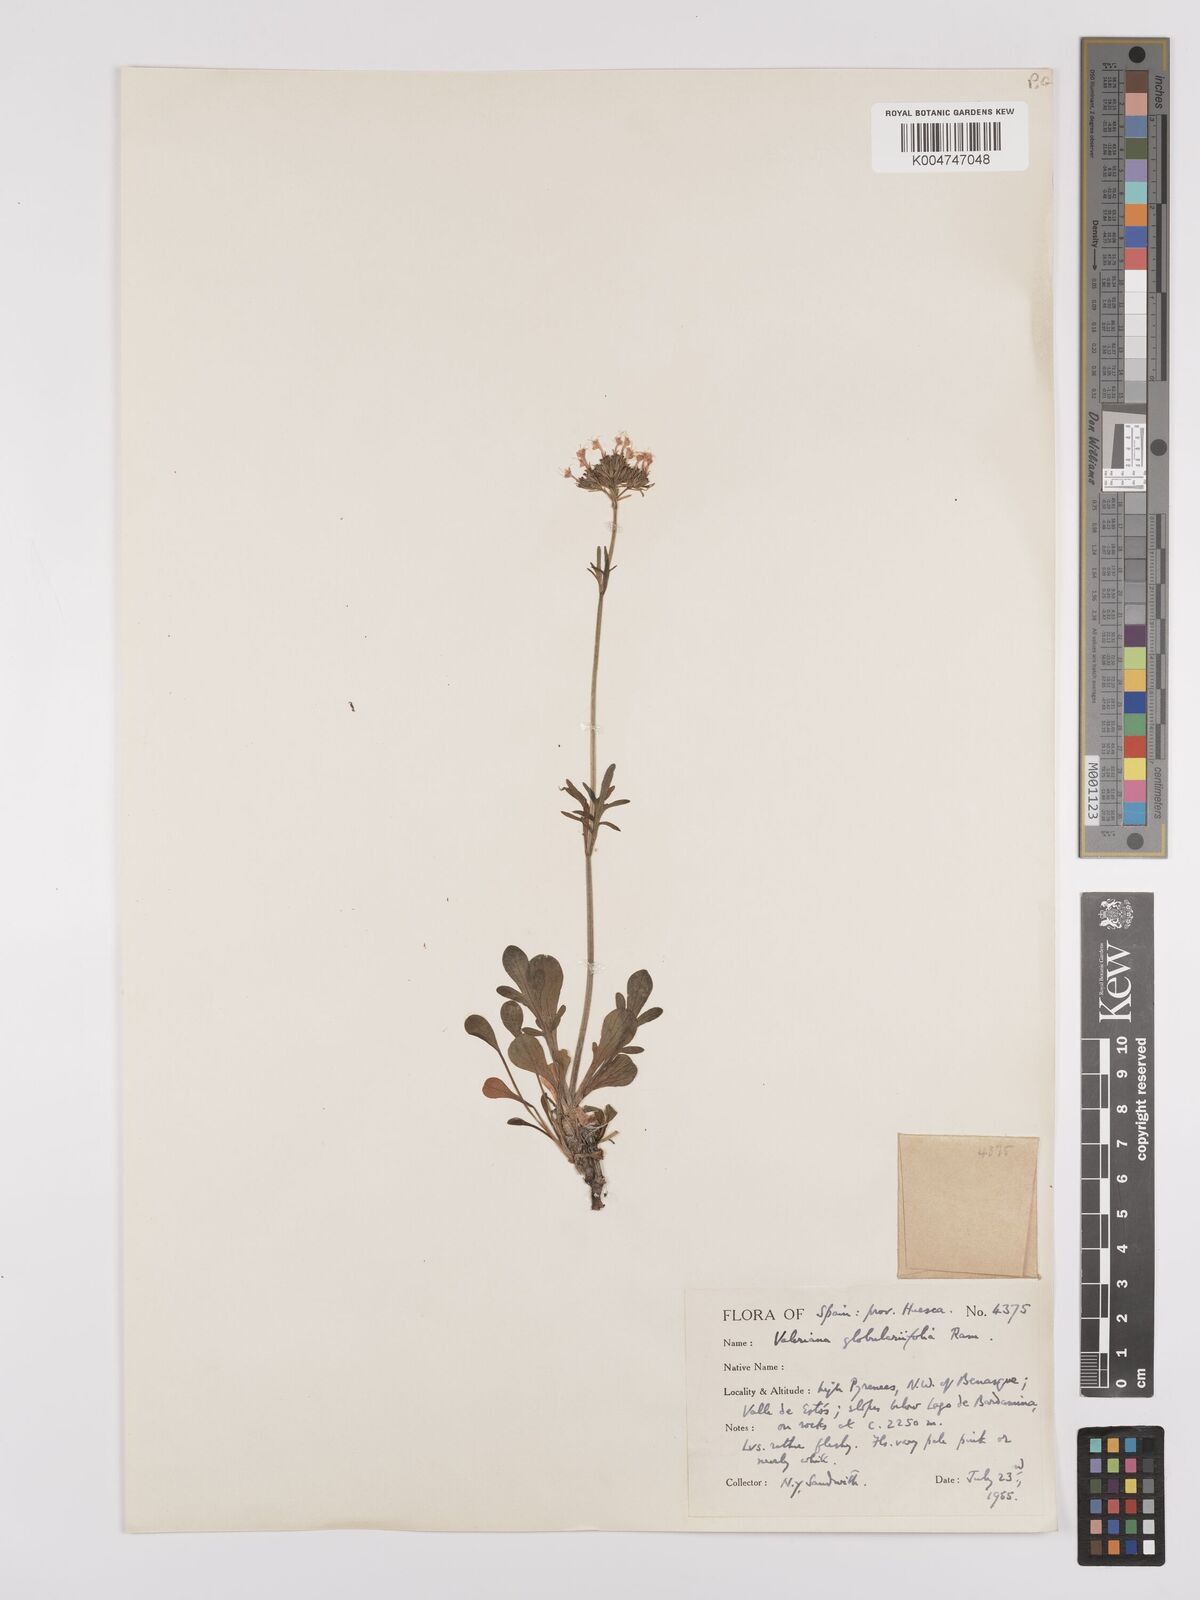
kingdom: Plantae
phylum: Tracheophyta
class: Magnoliopsida
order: Dipsacales
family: Caprifoliaceae
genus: Valeriana
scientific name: Valeriana apula
